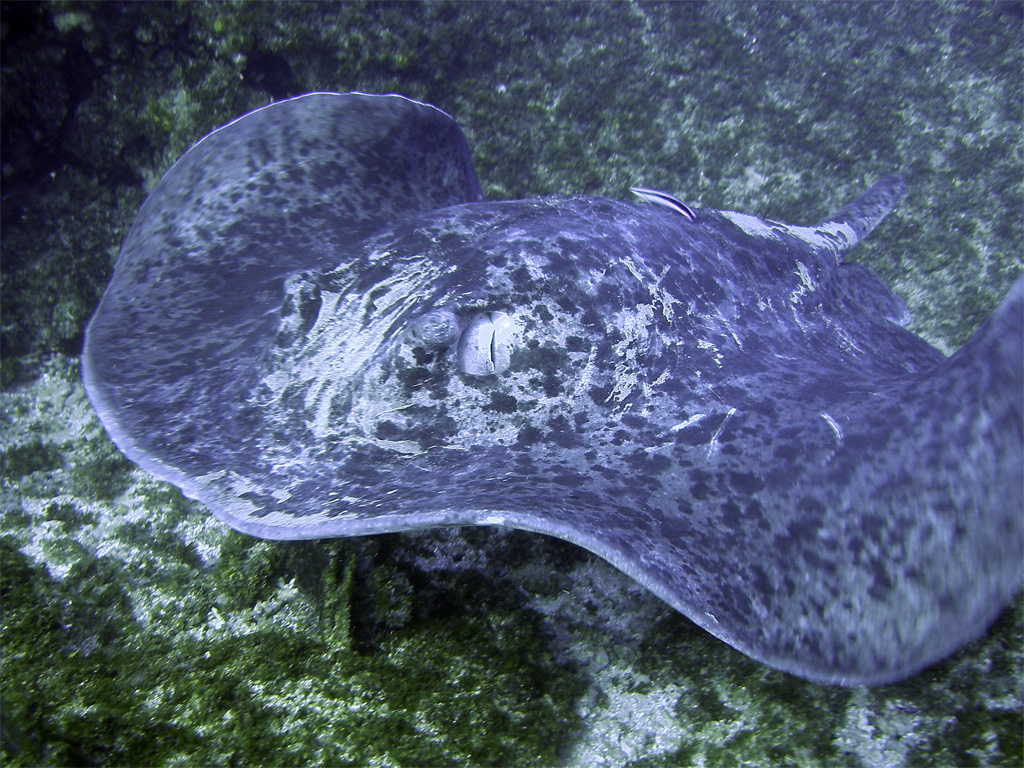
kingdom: Animalia
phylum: Chordata
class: Elasmobranchii
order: Myliobatiformes
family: Dasyatidae
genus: Taeniurops
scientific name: Taeniurops meyeni
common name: Black-blotched stingray
